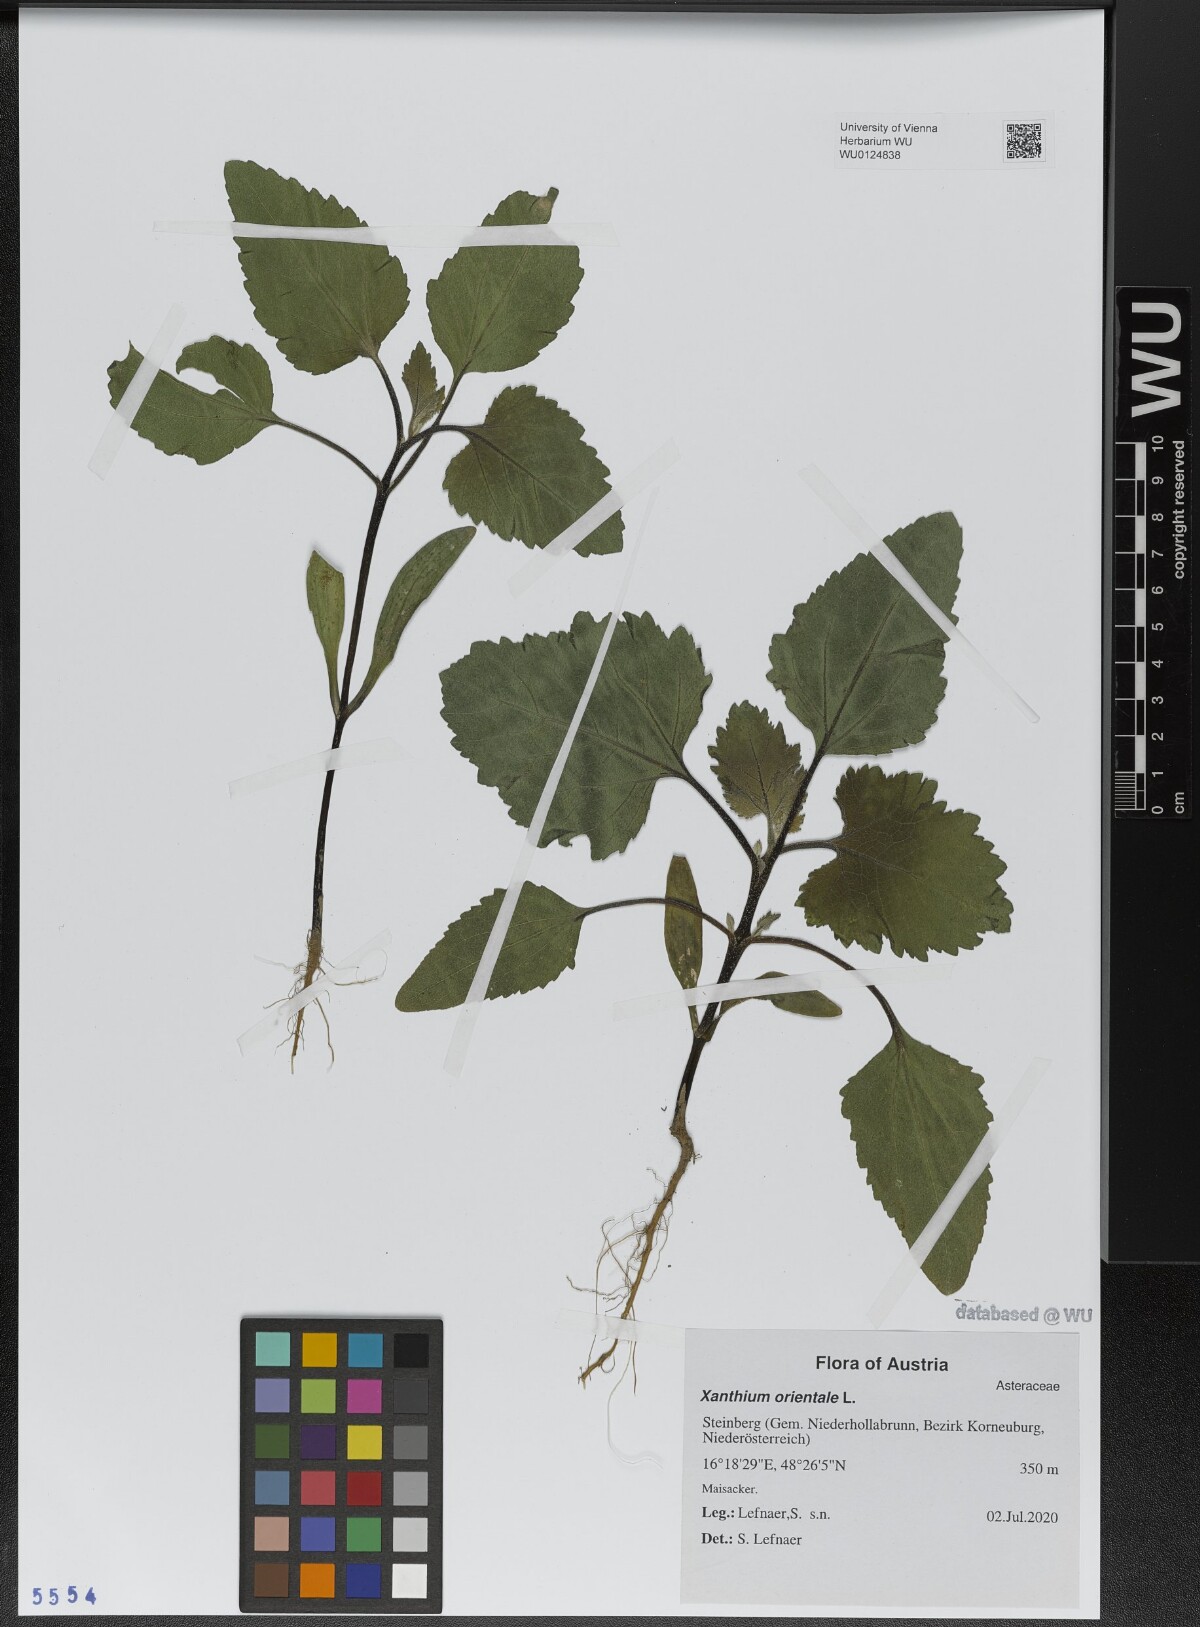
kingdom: Plantae
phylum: Tracheophyta
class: Magnoliopsida
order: Asterales
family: Asteraceae
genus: Xanthium
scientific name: Xanthium orientale
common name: Californian burr
